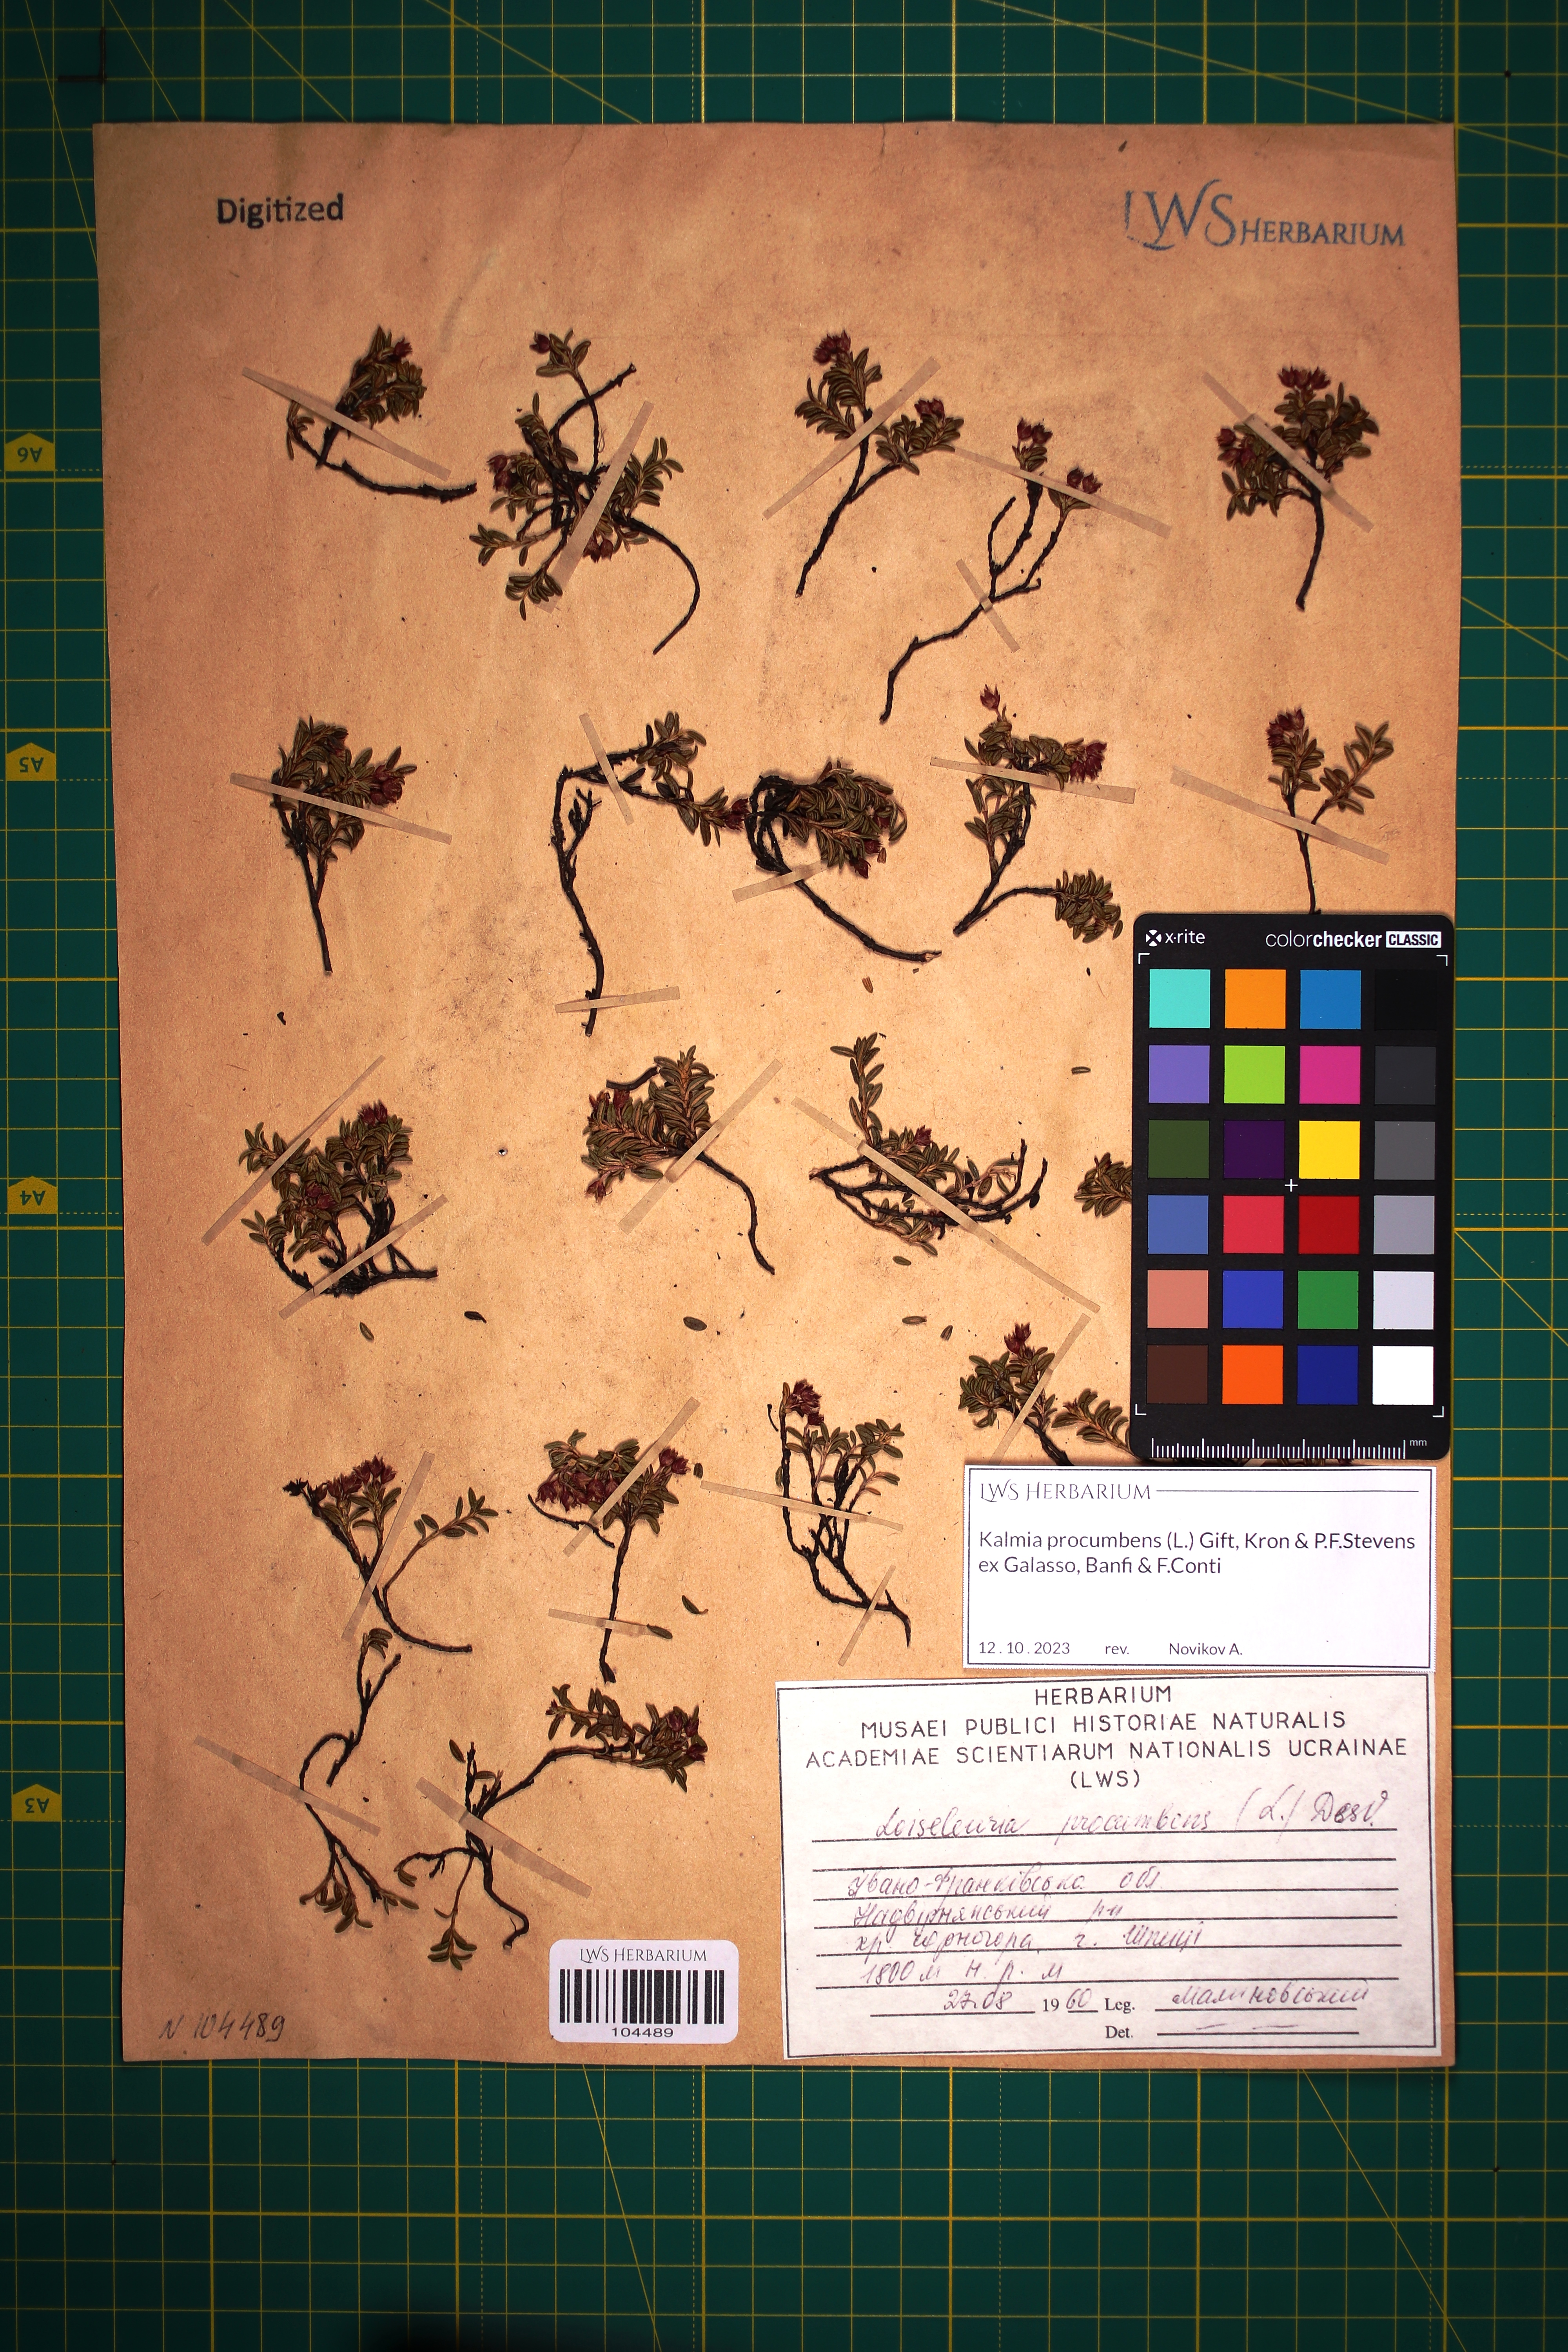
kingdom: Plantae
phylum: Tracheophyta
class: Magnoliopsida
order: Ericales
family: Ericaceae
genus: Kalmia
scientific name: Kalmia procumbens
